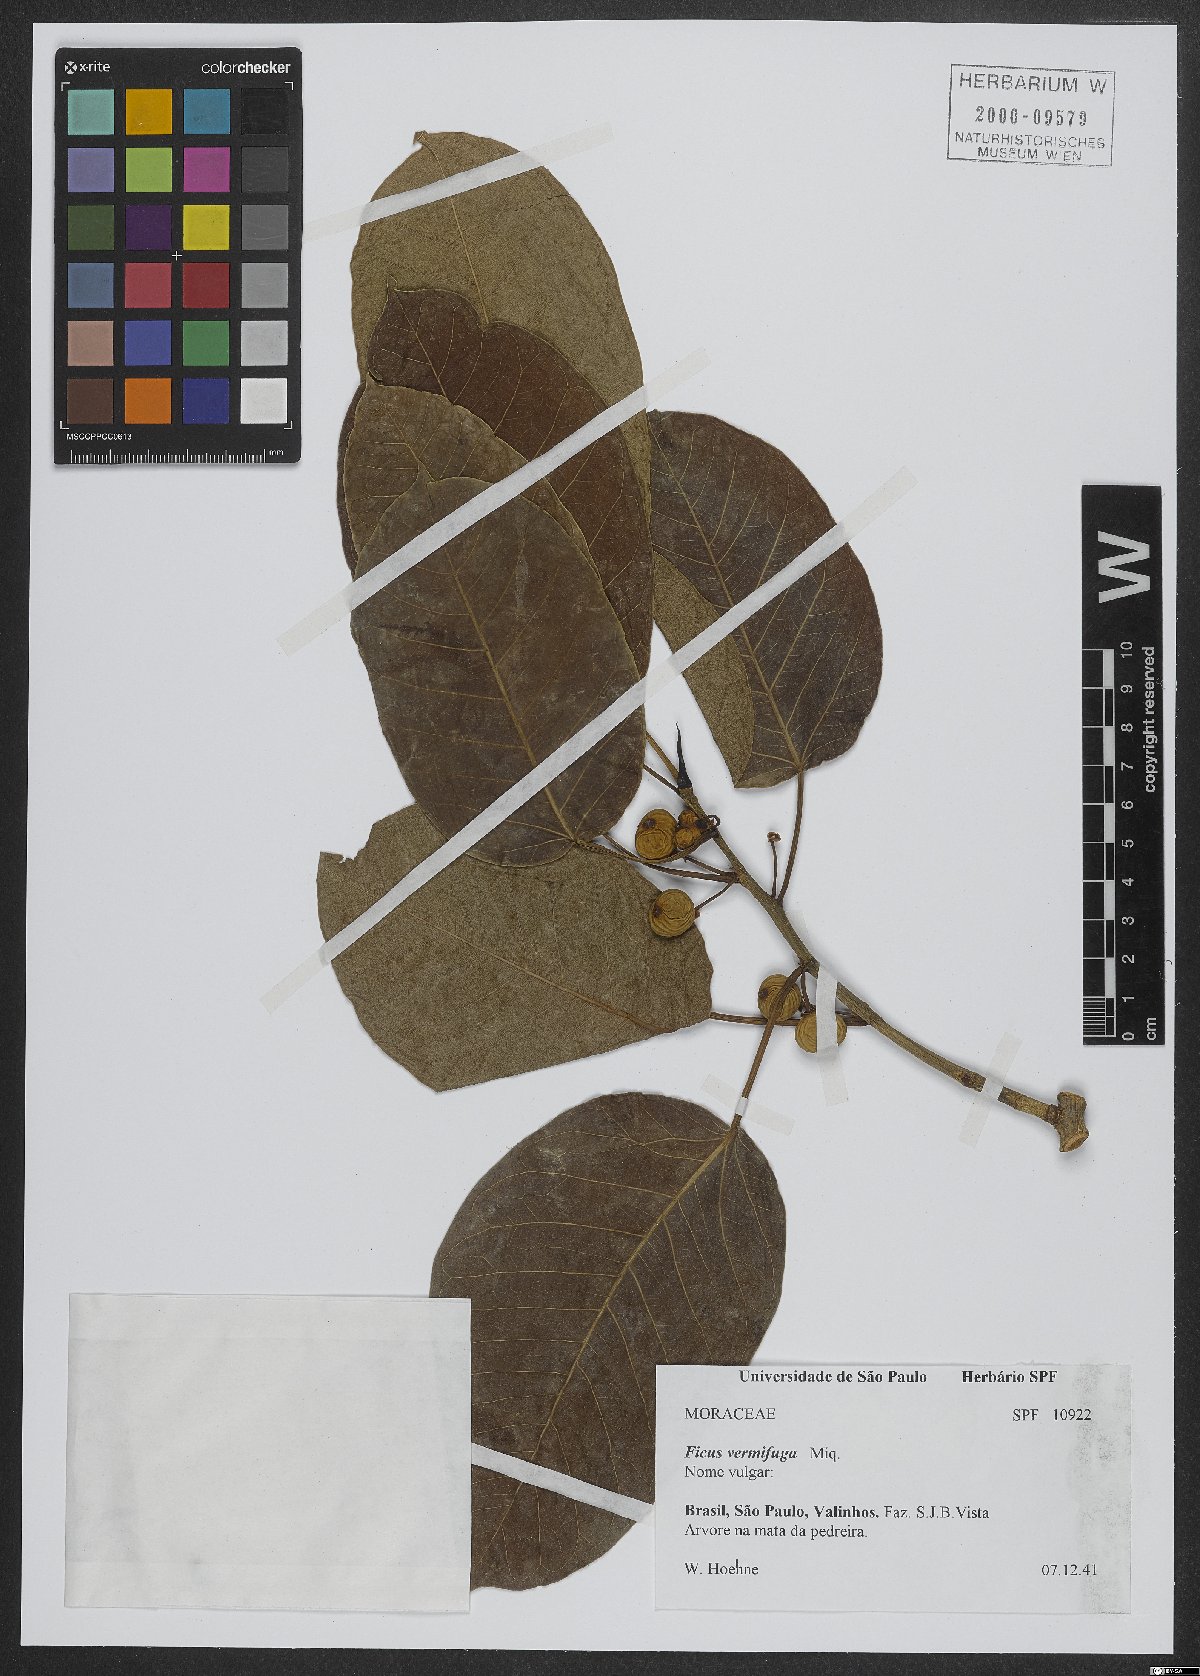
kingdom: Plantae
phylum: Tracheophyta
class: Magnoliopsida
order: Rosales
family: Moraceae
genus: Ficus
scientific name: Ficus vermifuga
